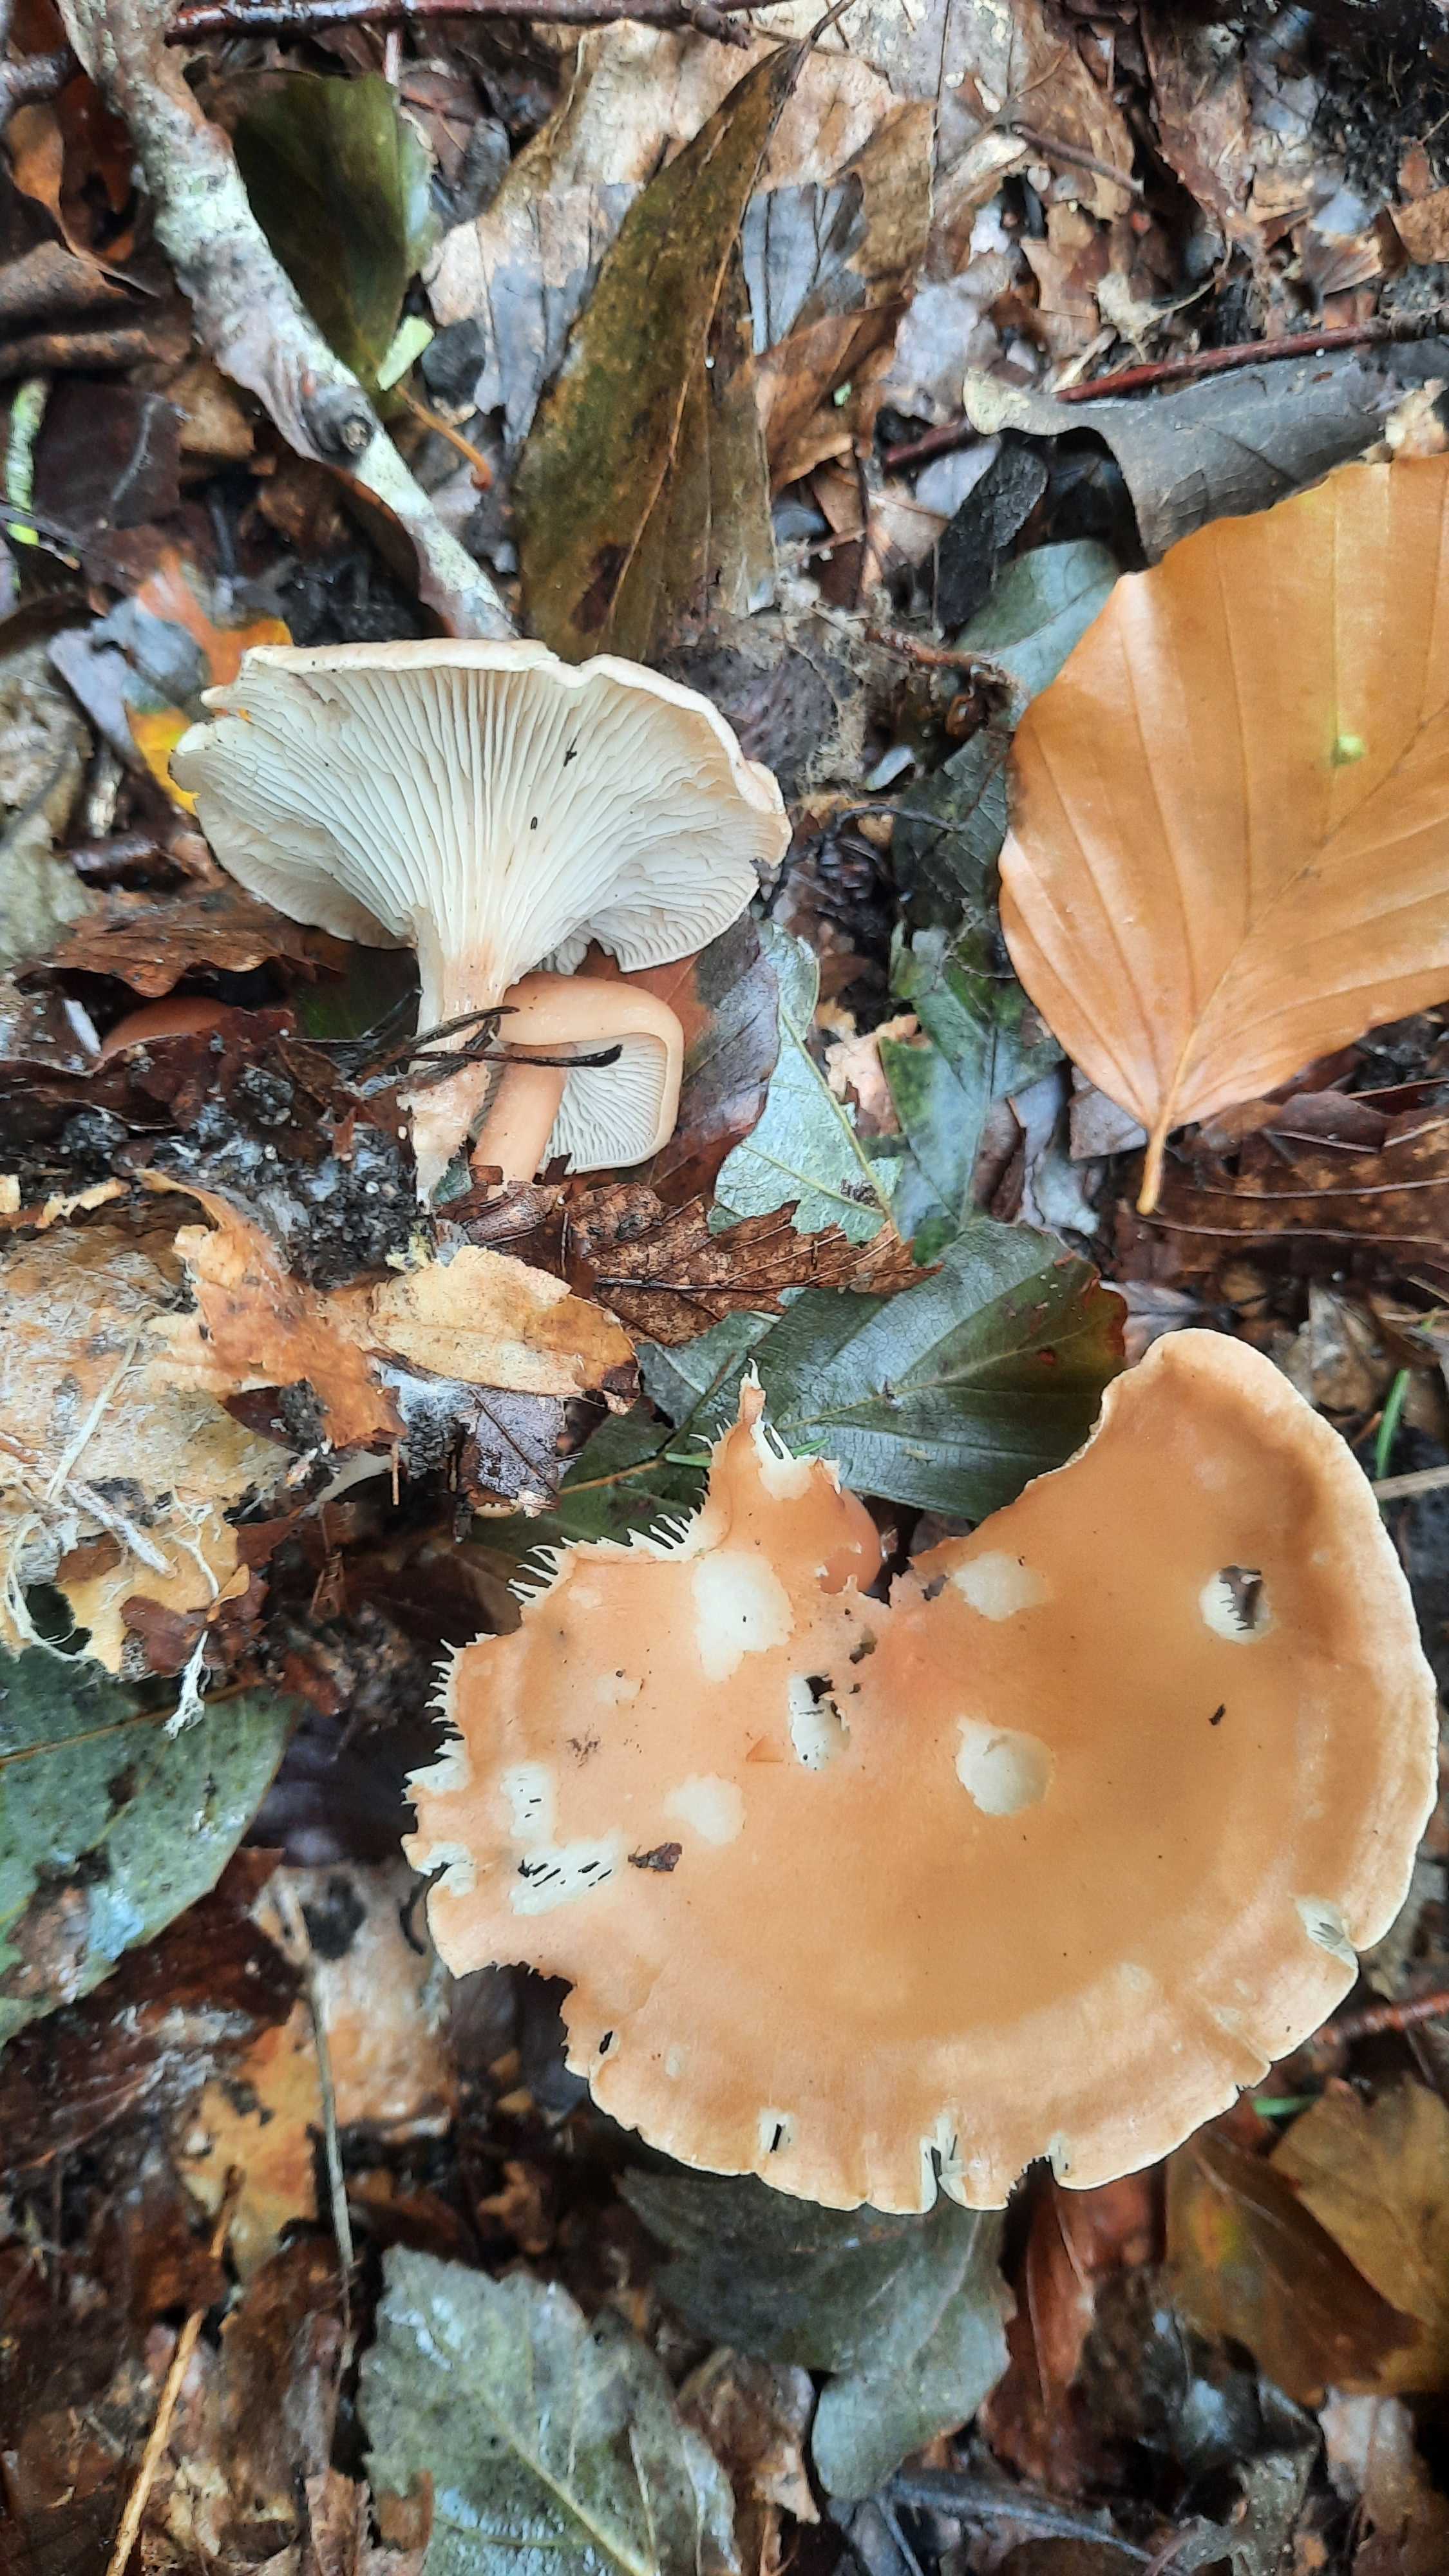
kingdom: Fungi
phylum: Basidiomycota
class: Agaricomycetes
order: Agaricales
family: Tricholomataceae
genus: Infundibulicybe
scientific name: Infundibulicybe gibba
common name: almindelig tragthat
